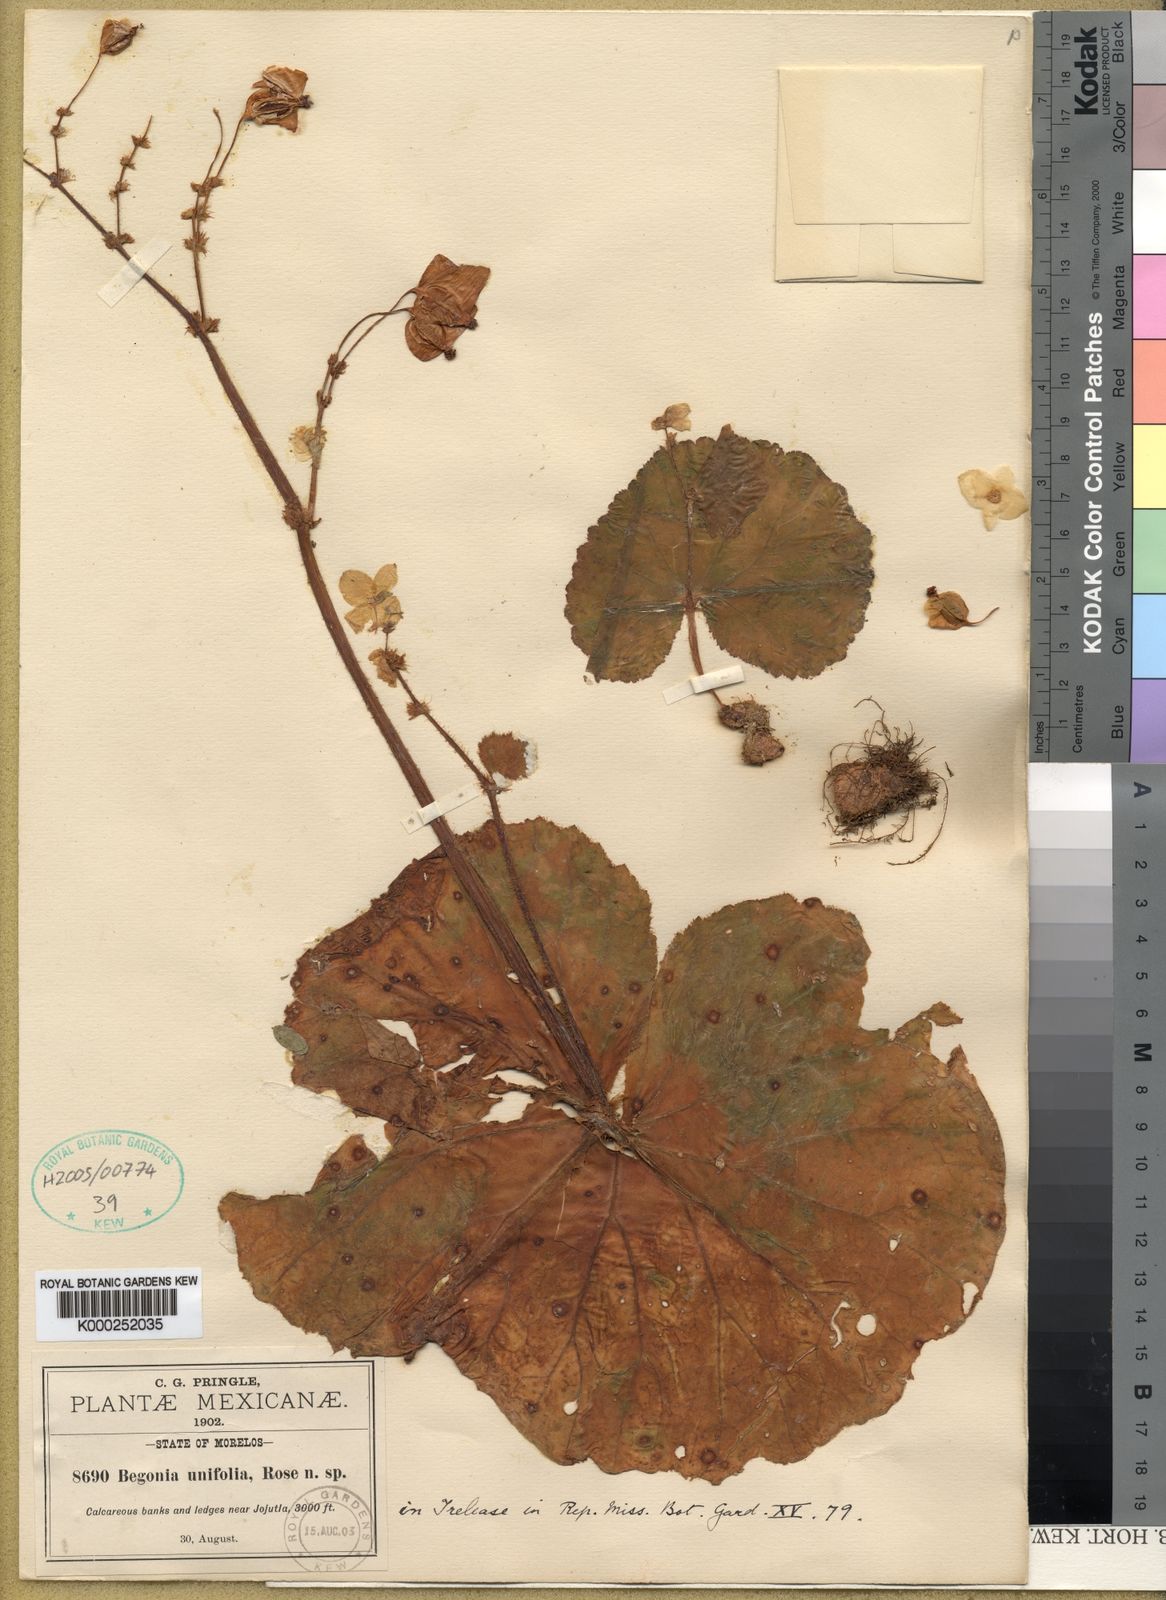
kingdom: Plantae
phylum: Tracheophyta
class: Magnoliopsida
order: Cucurbitales
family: Begoniaceae
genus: Begonia
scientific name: Begonia monophylla
